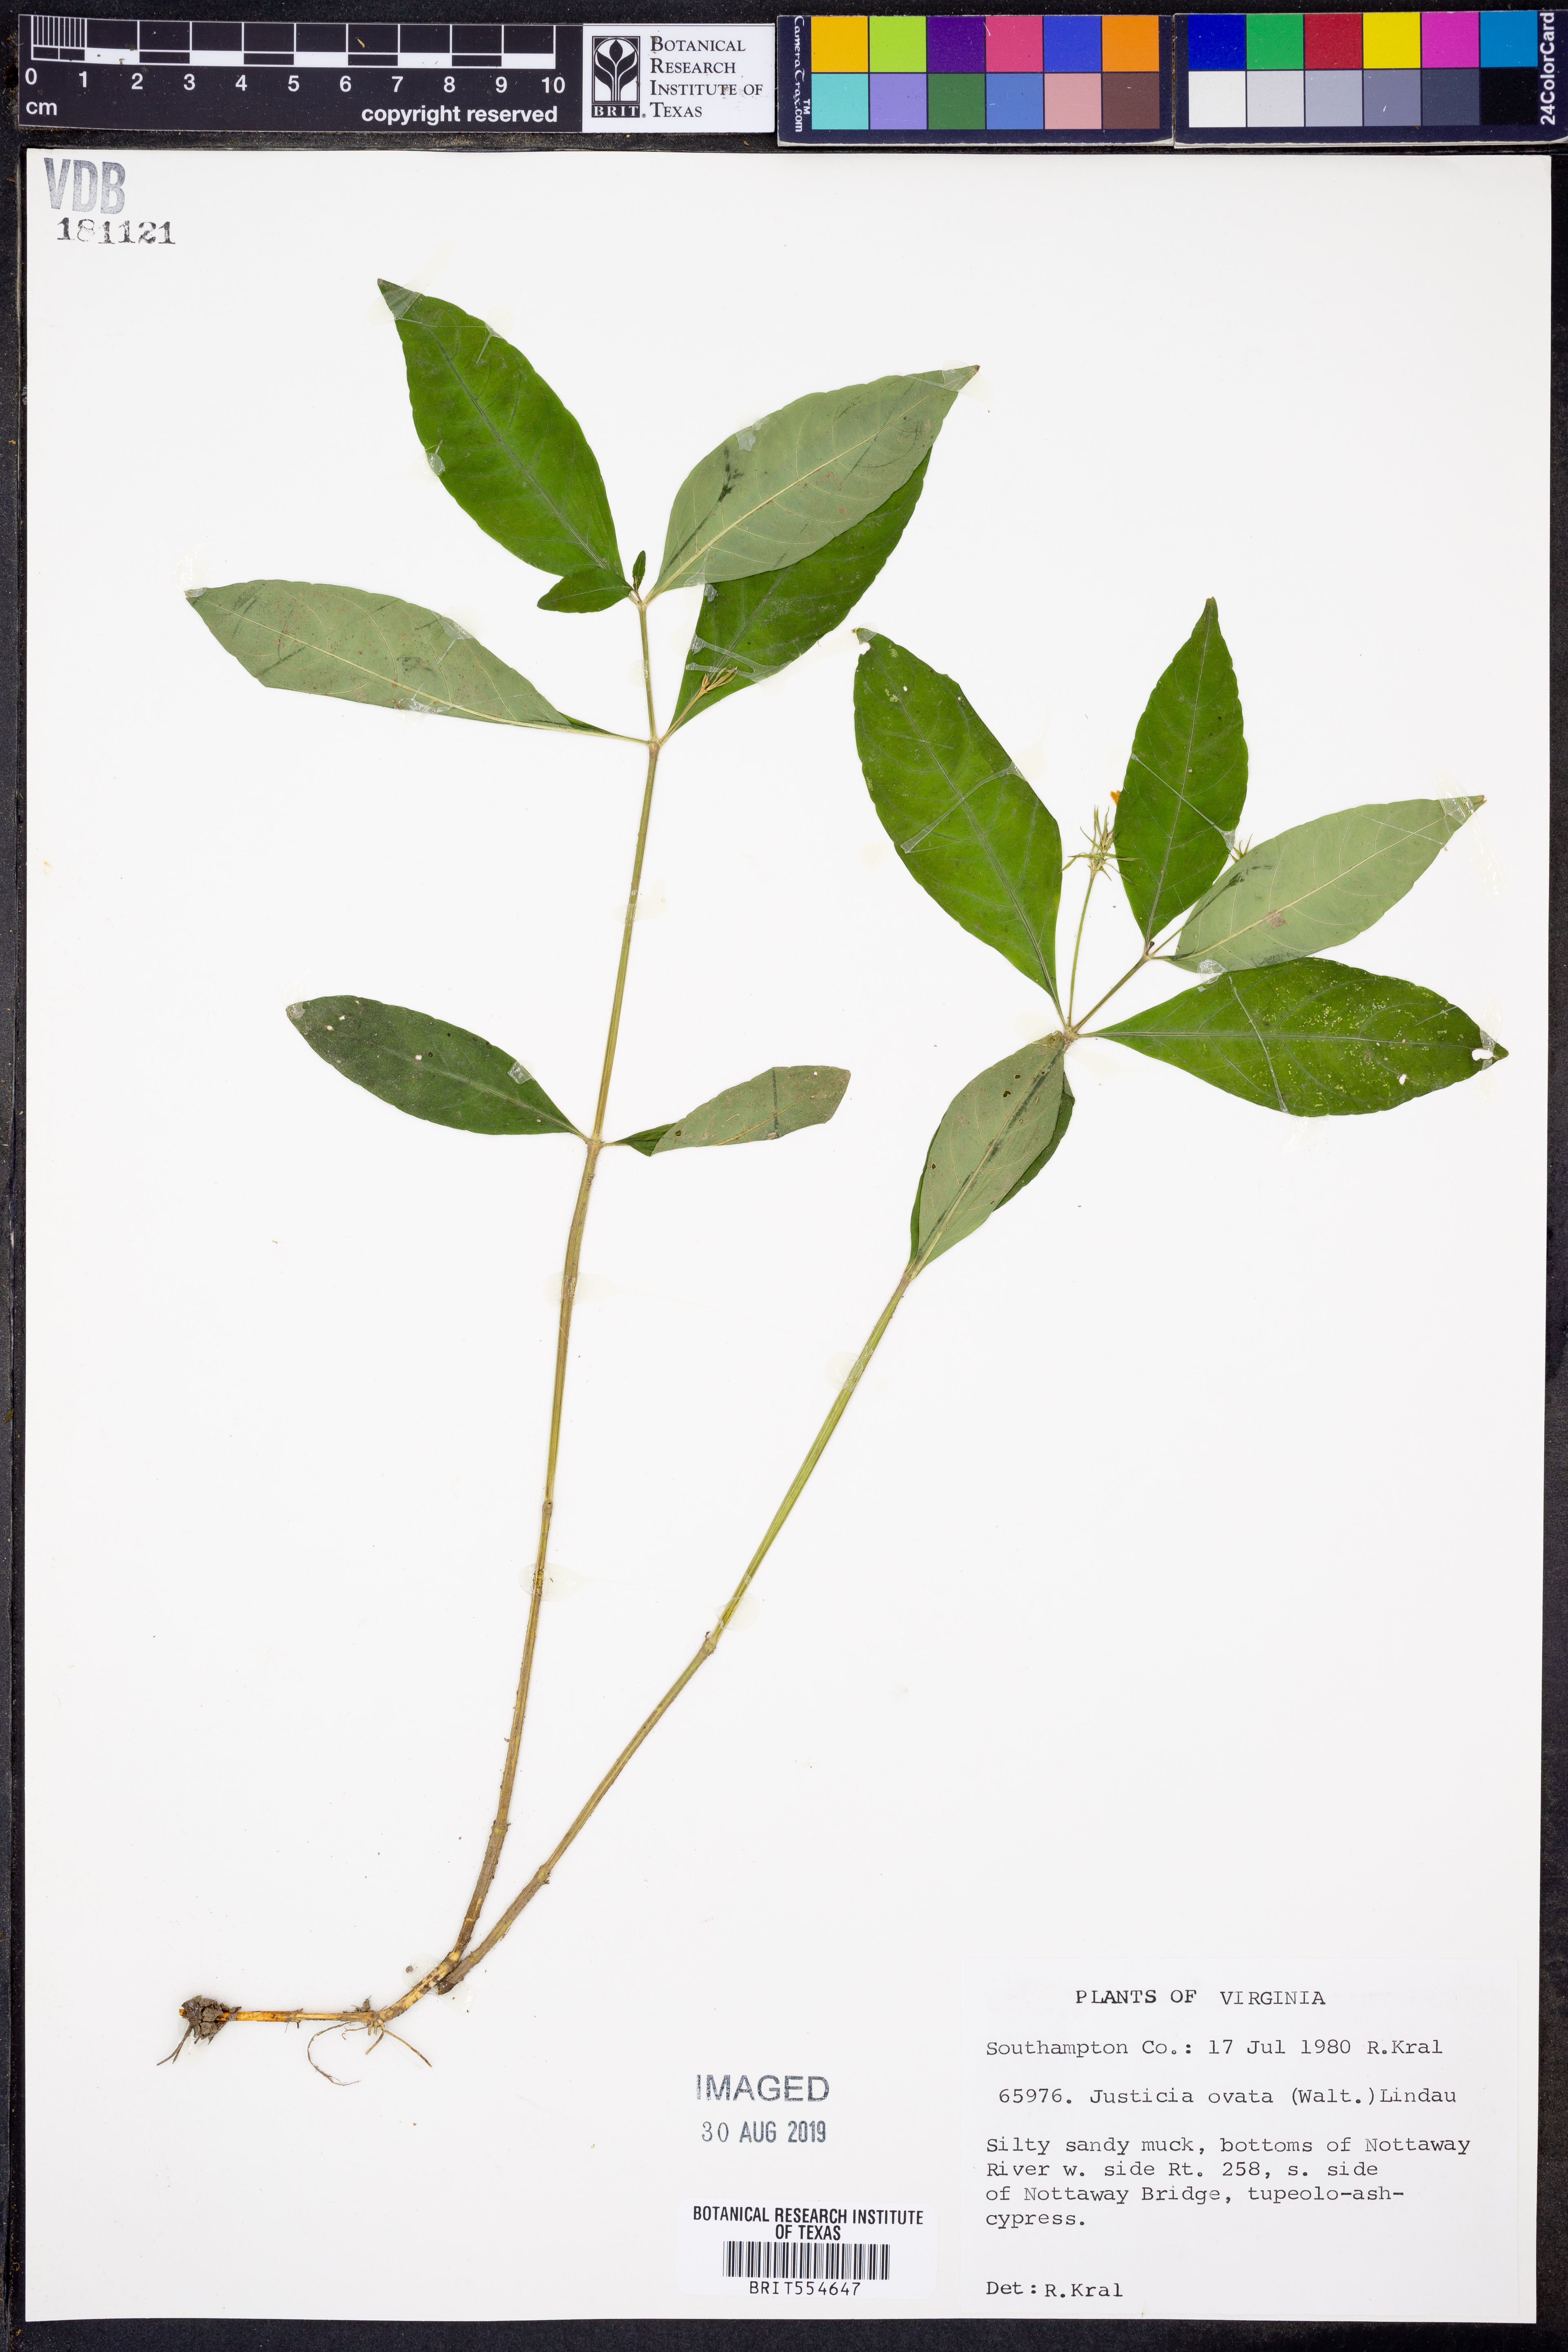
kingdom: Plantae
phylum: Tracheophyta
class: Magnoliopsida
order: Lamiales
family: Acanthaceae
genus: Dianthera
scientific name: Dianthera ovata
